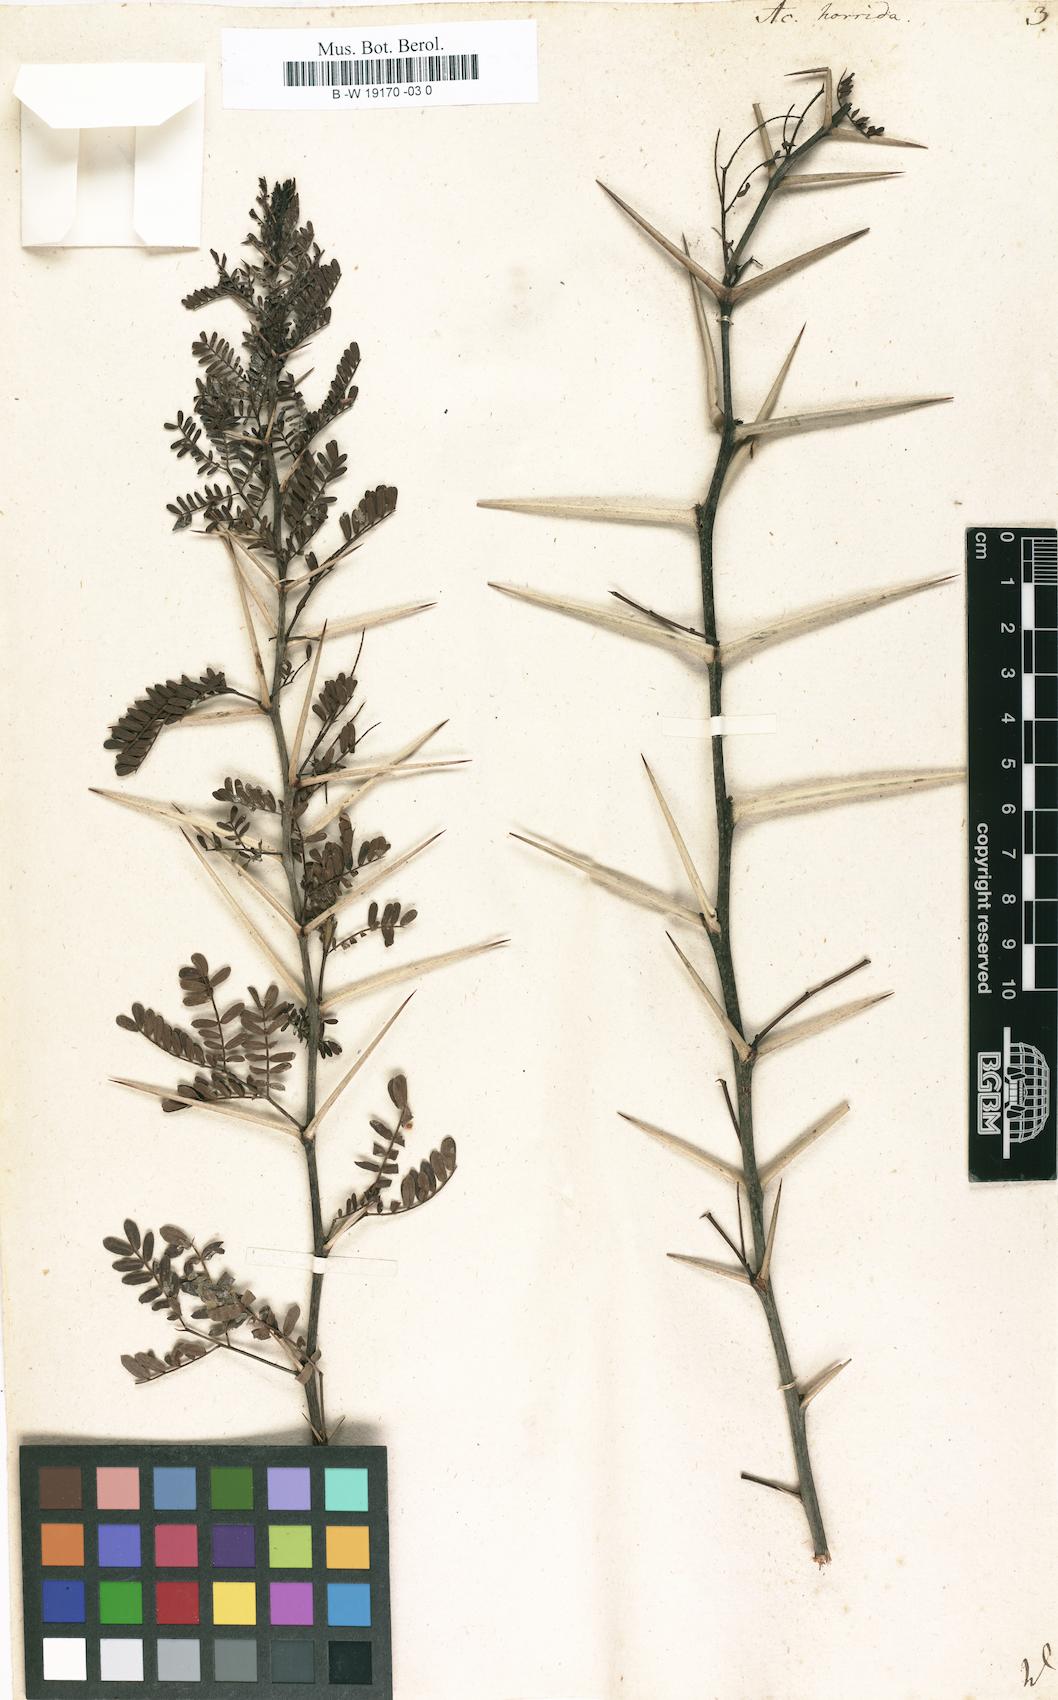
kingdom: Plantae
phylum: Tracheophyta
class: Magnoliopsida
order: Fabales
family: Fabaceae
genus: Vachellia
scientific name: Vachellia
